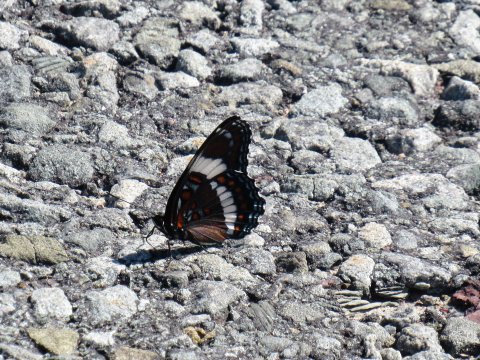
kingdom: Animalia
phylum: Arthropoda
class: Insecta
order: Lepidoptera
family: Nymphalidae
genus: Limenitis
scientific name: Limenitis arthemis
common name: Red-spotted Admiral
